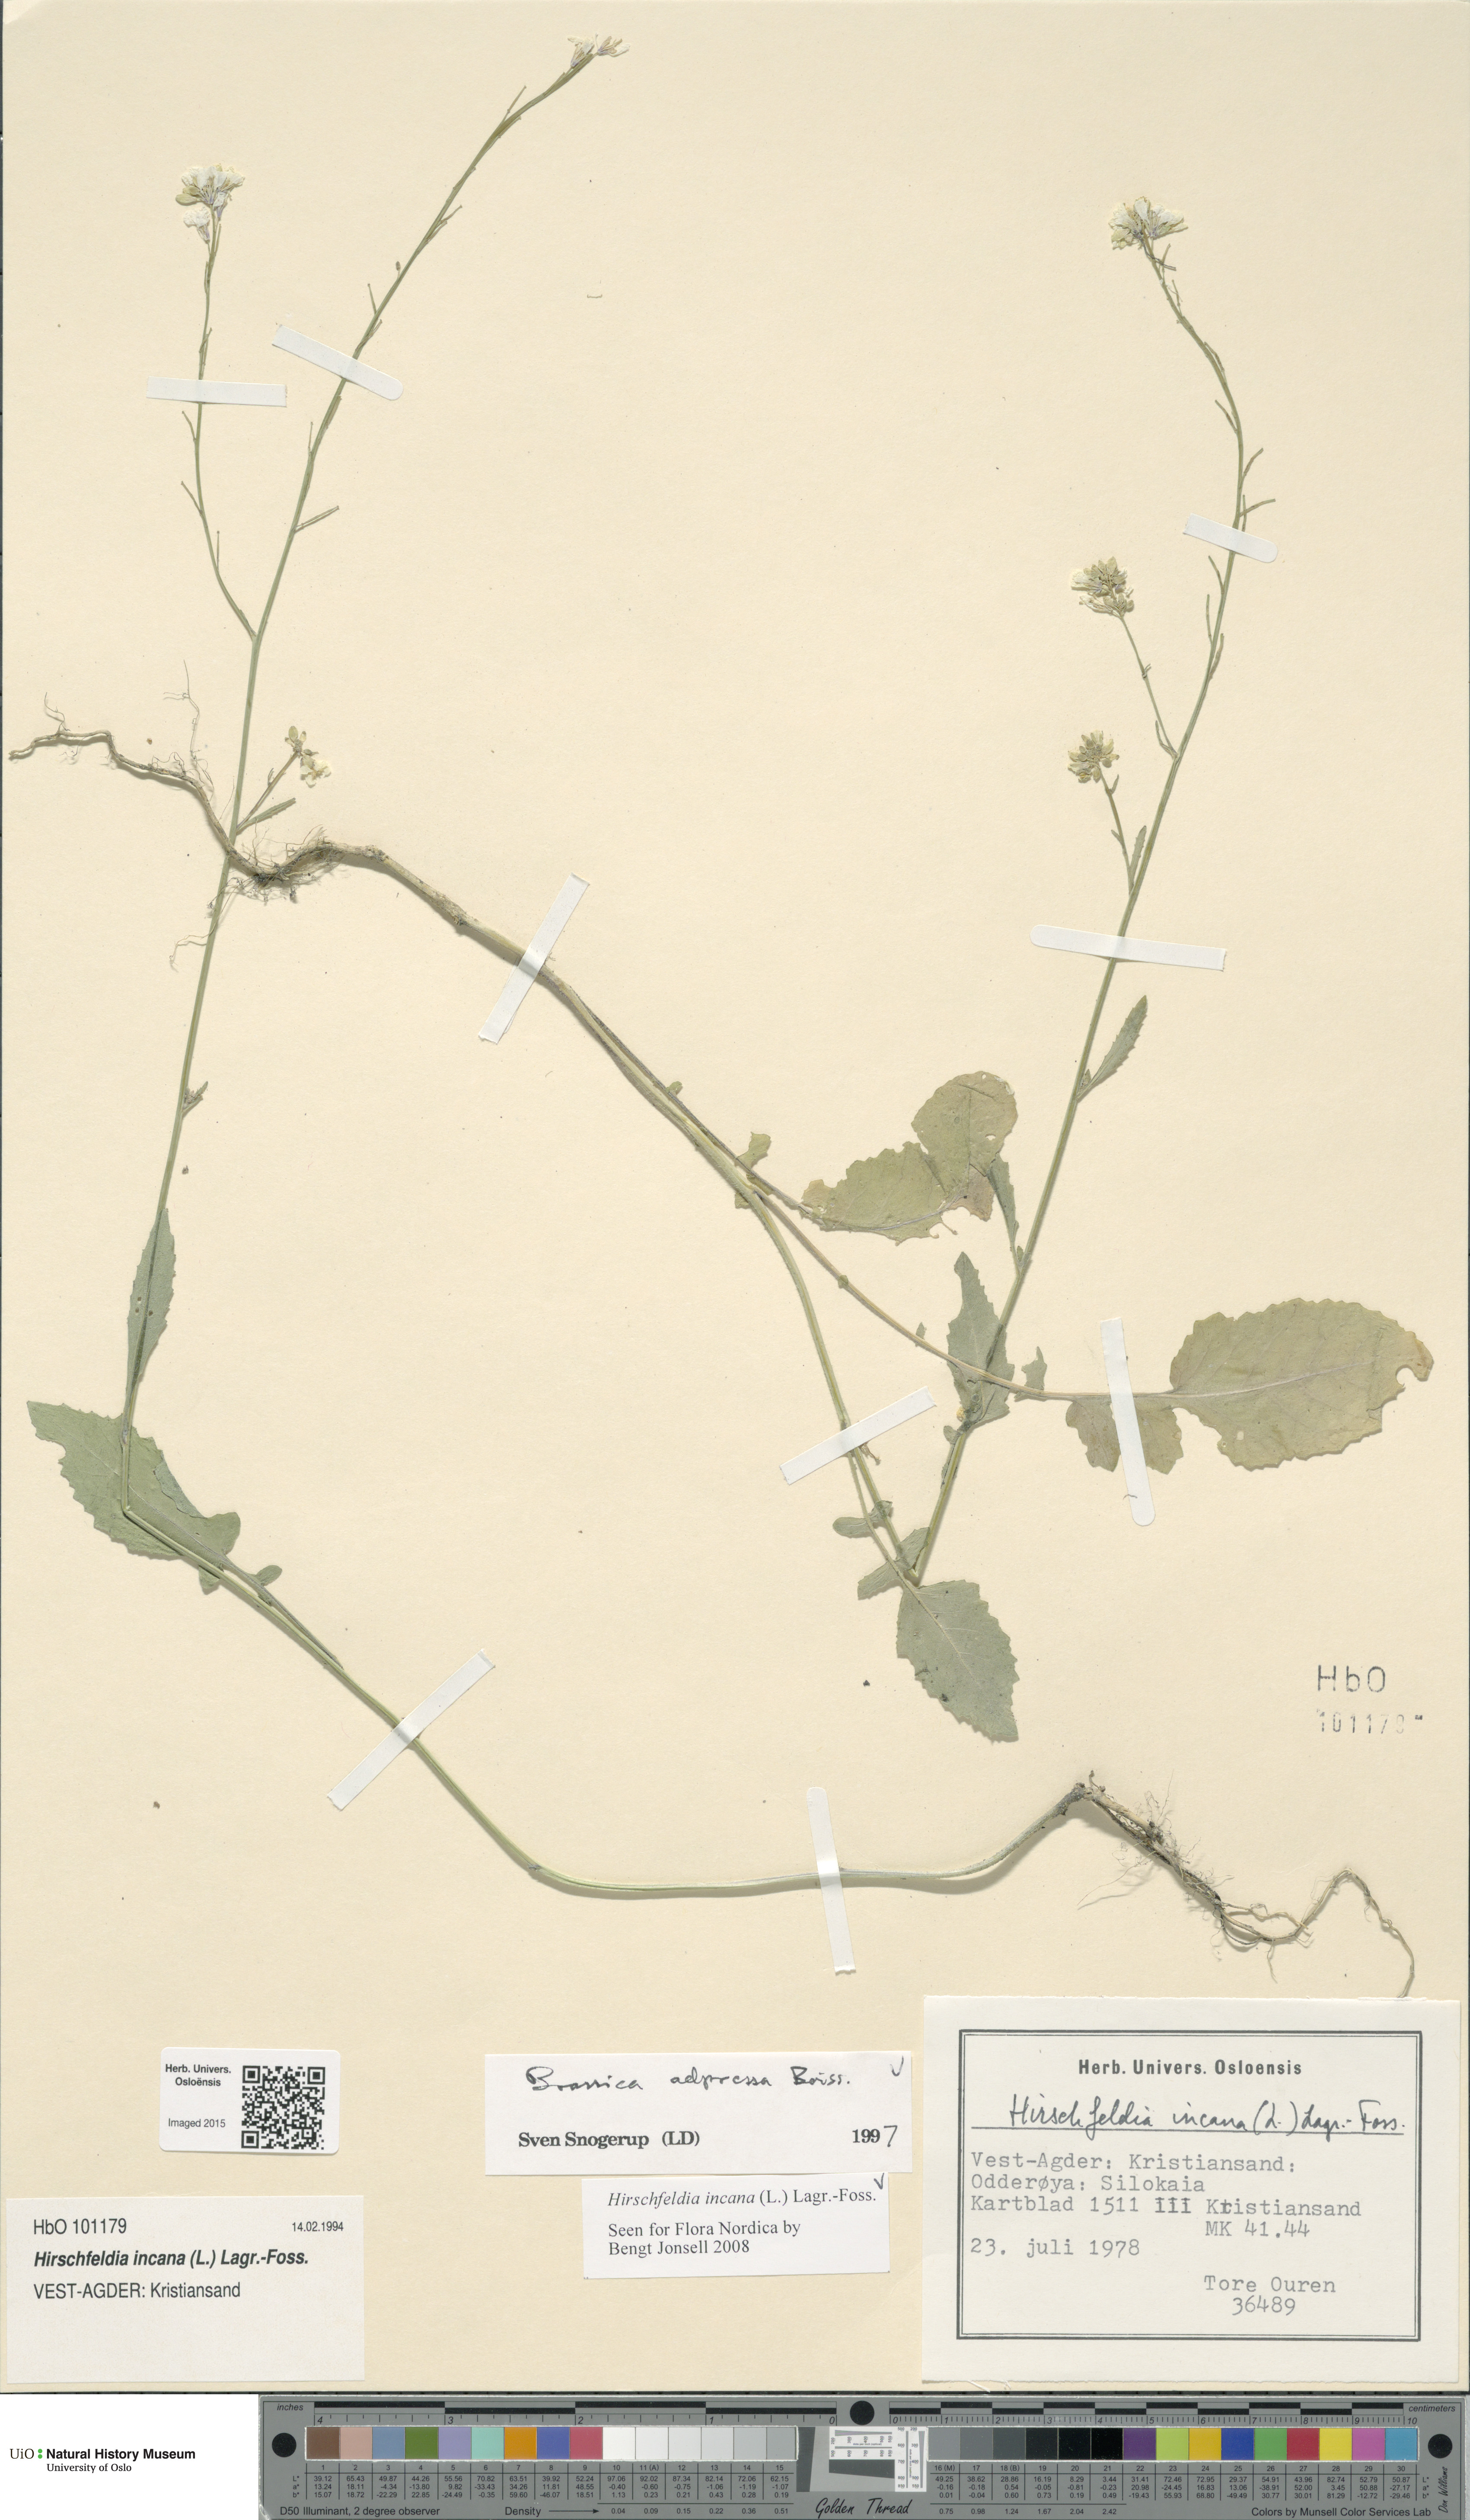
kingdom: Plantae
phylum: Tracheophyta
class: Magnoliopsida
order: Brassicales
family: Brassicaceae
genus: Hirschfeldia
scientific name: Hirschfeldia incana
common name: Hoary mustard
